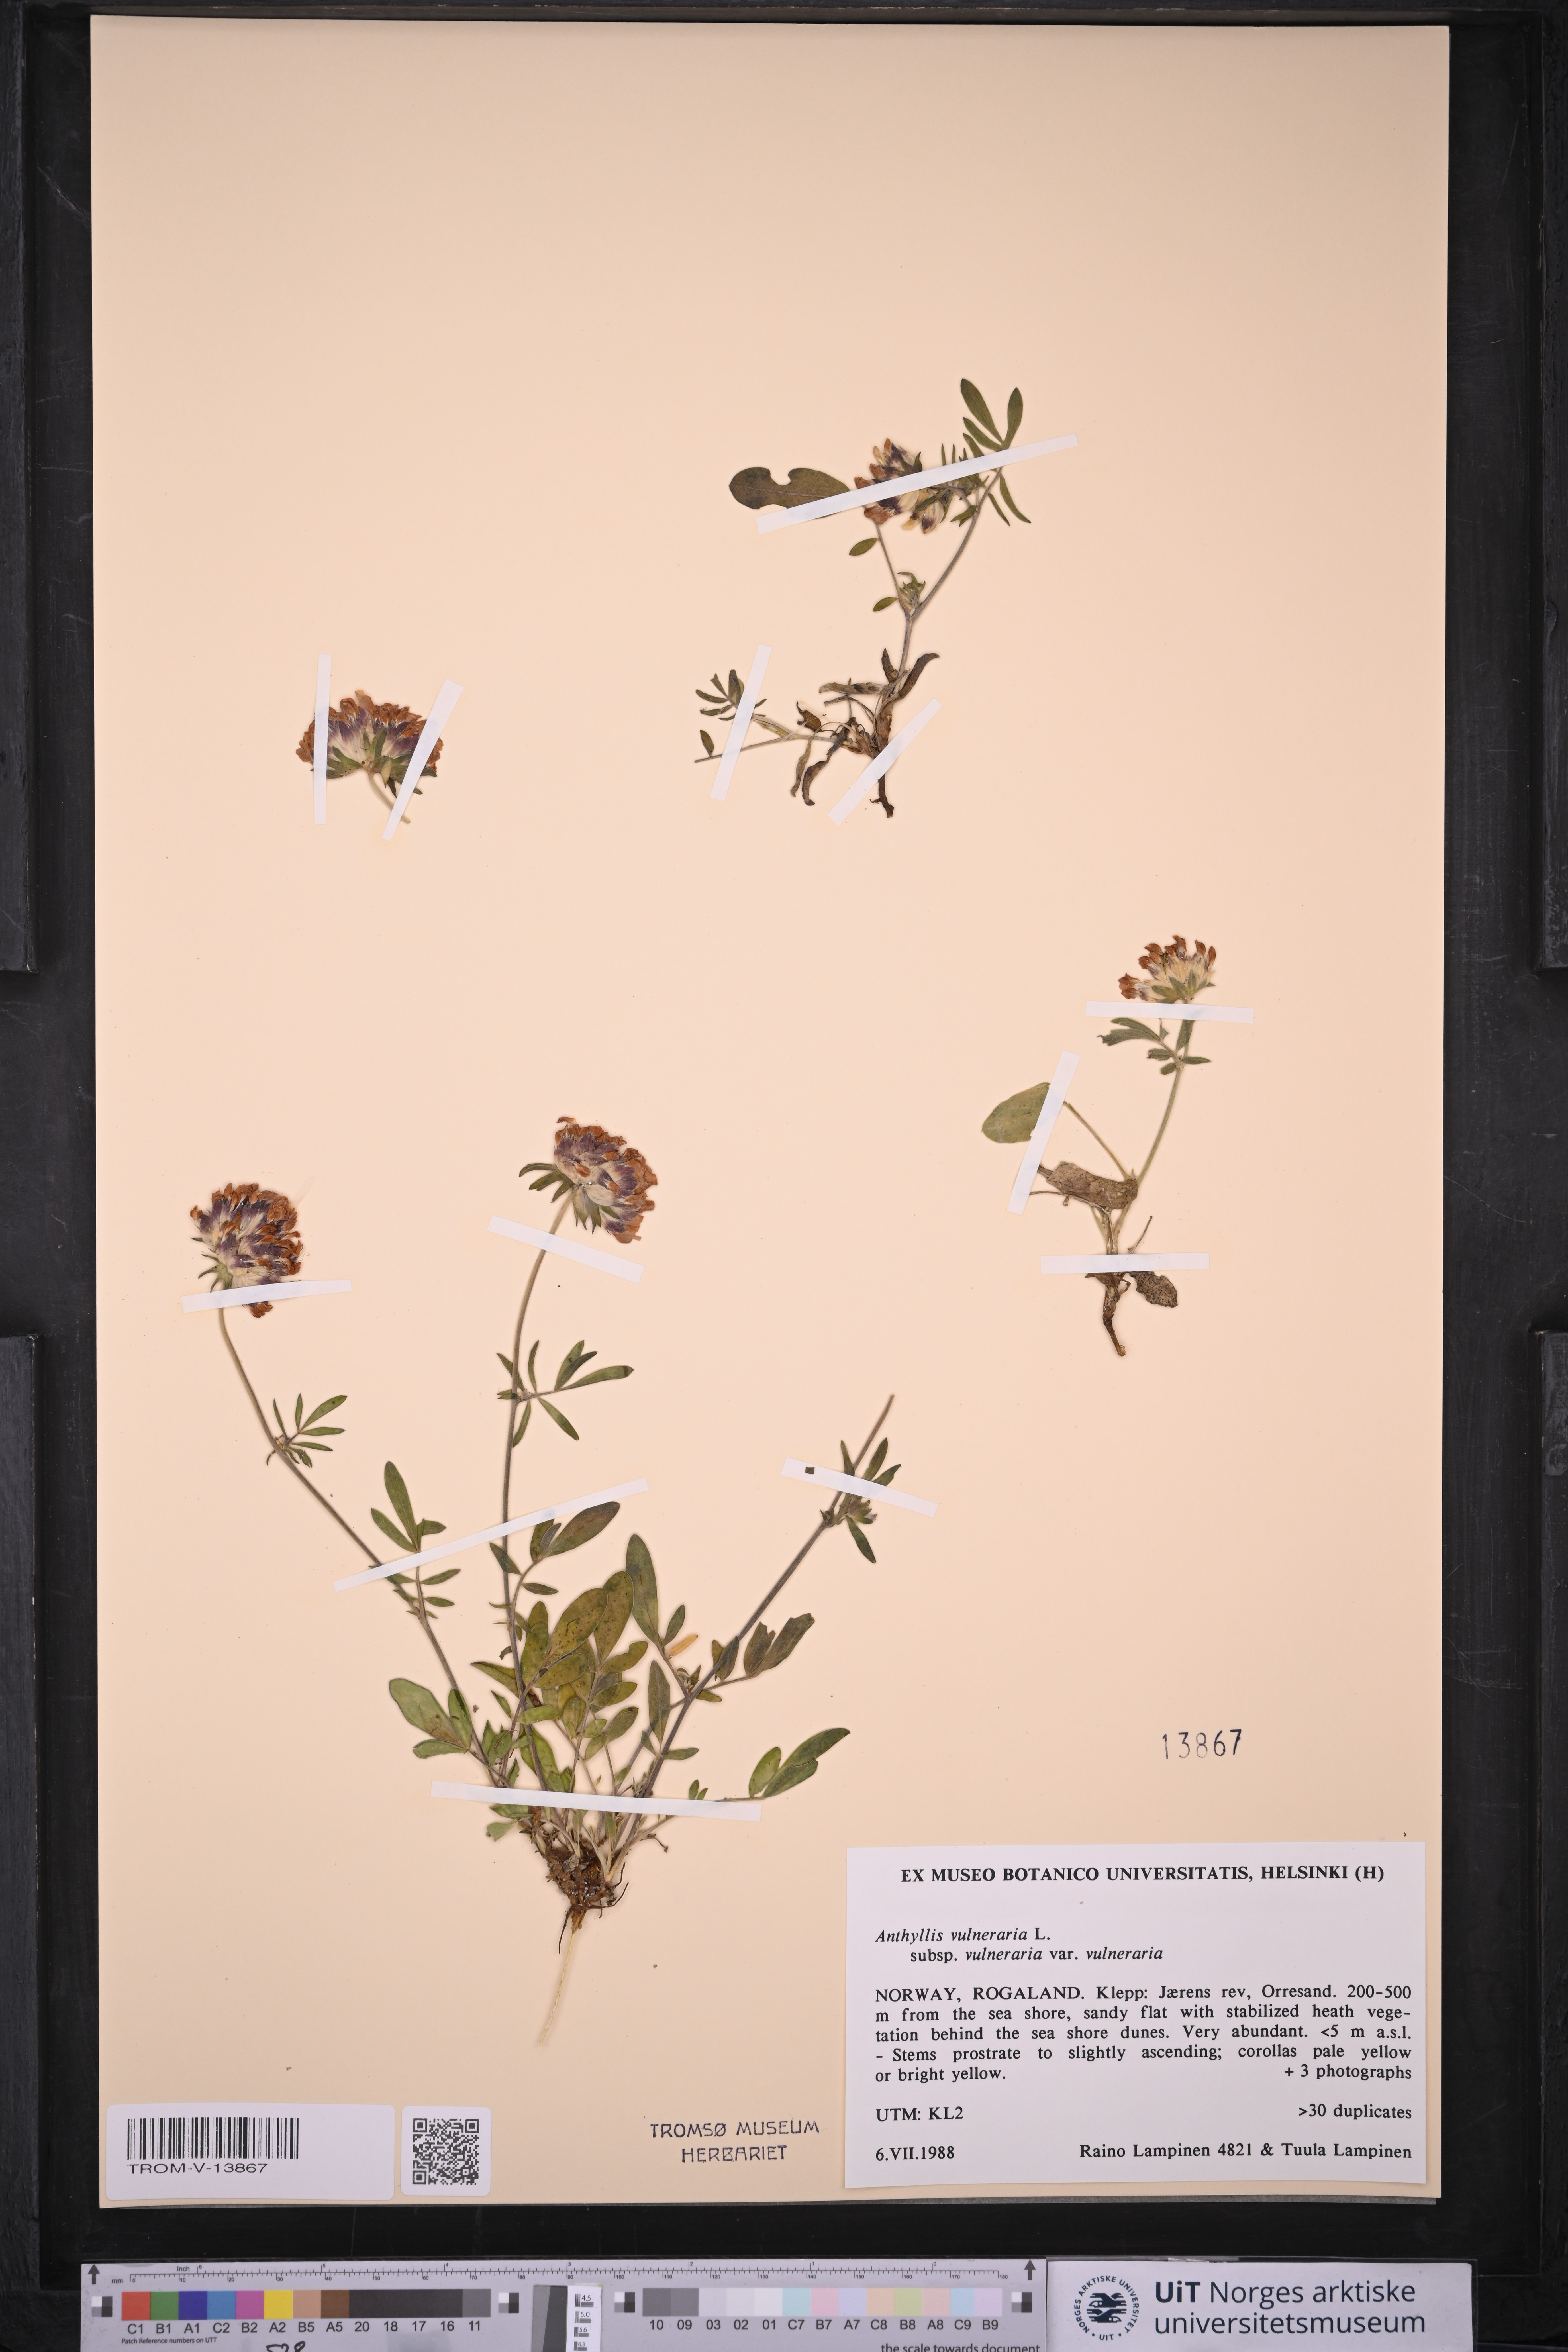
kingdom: Plantae
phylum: Tracheophyta
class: Magnoliopsida
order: Fabales
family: Fabaceae
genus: Anthyllis
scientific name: Anthyllis vulneraria
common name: Kidney vetch
